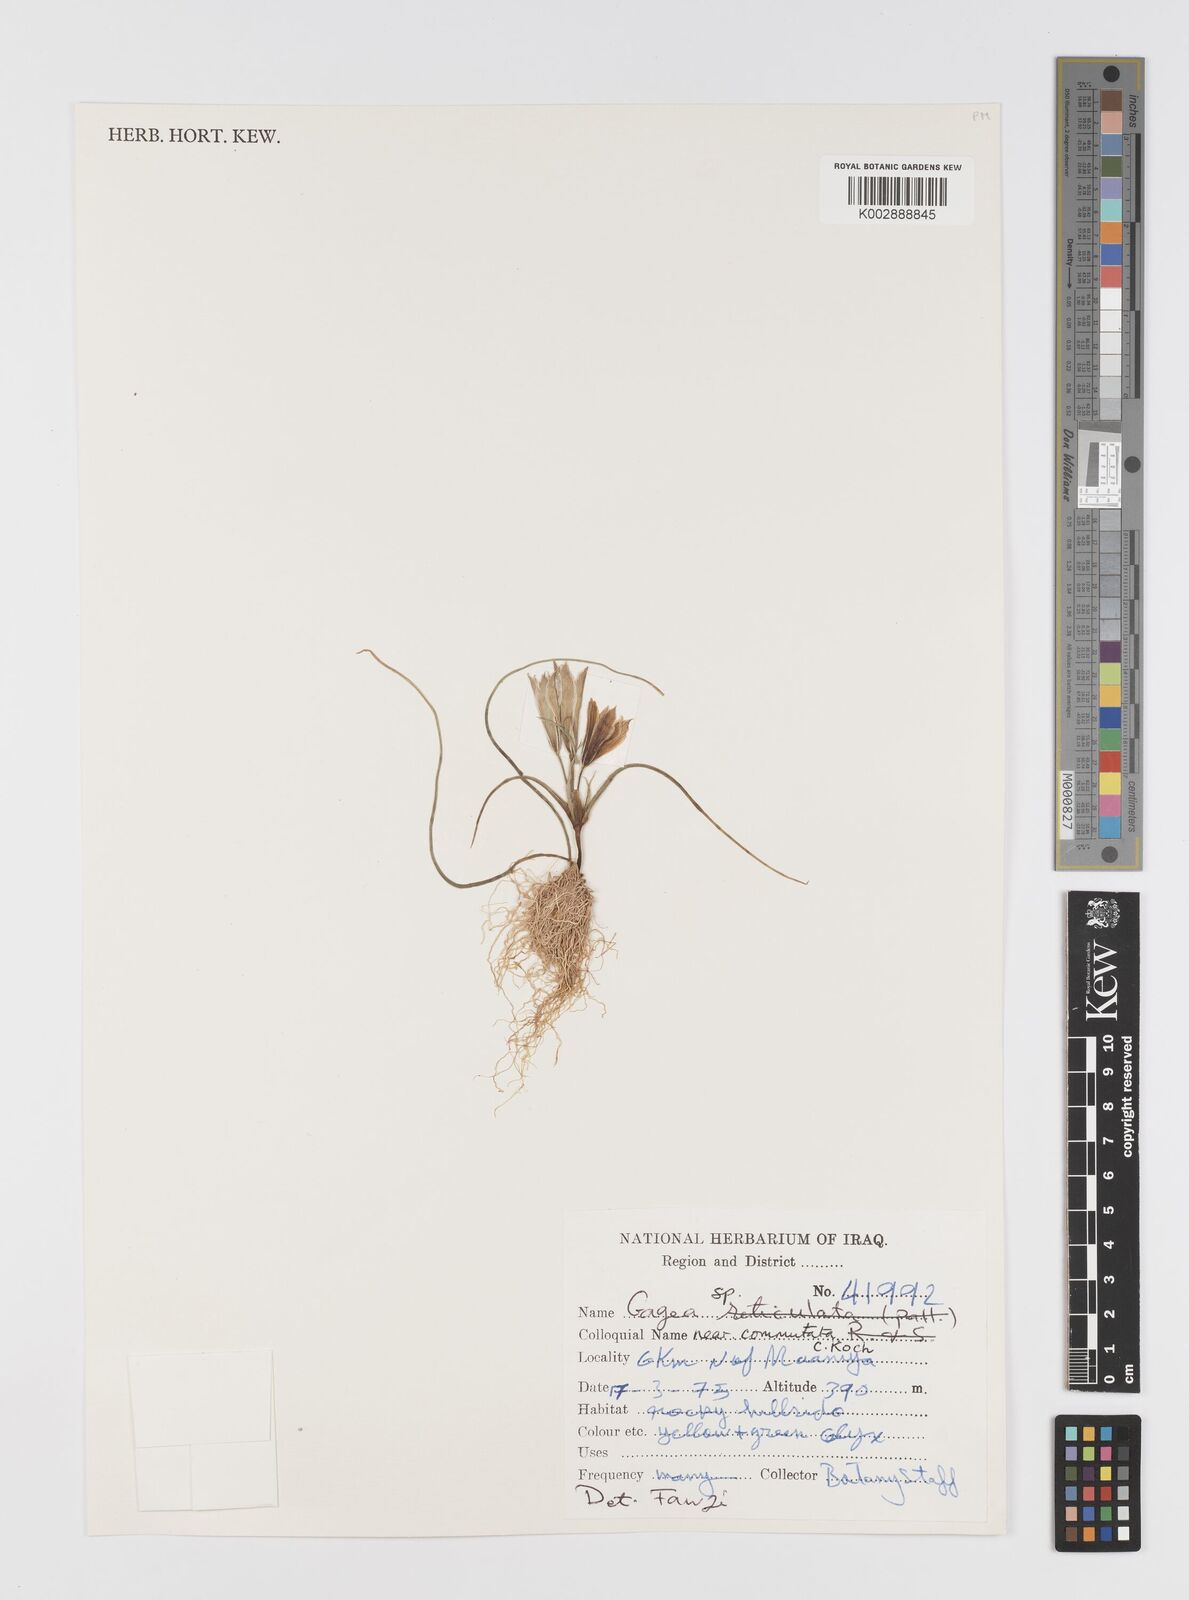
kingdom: Plantae
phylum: Tracheophyta
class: Liliopsida
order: Liliales
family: Liliaceae
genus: Gagea
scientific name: Gagea
